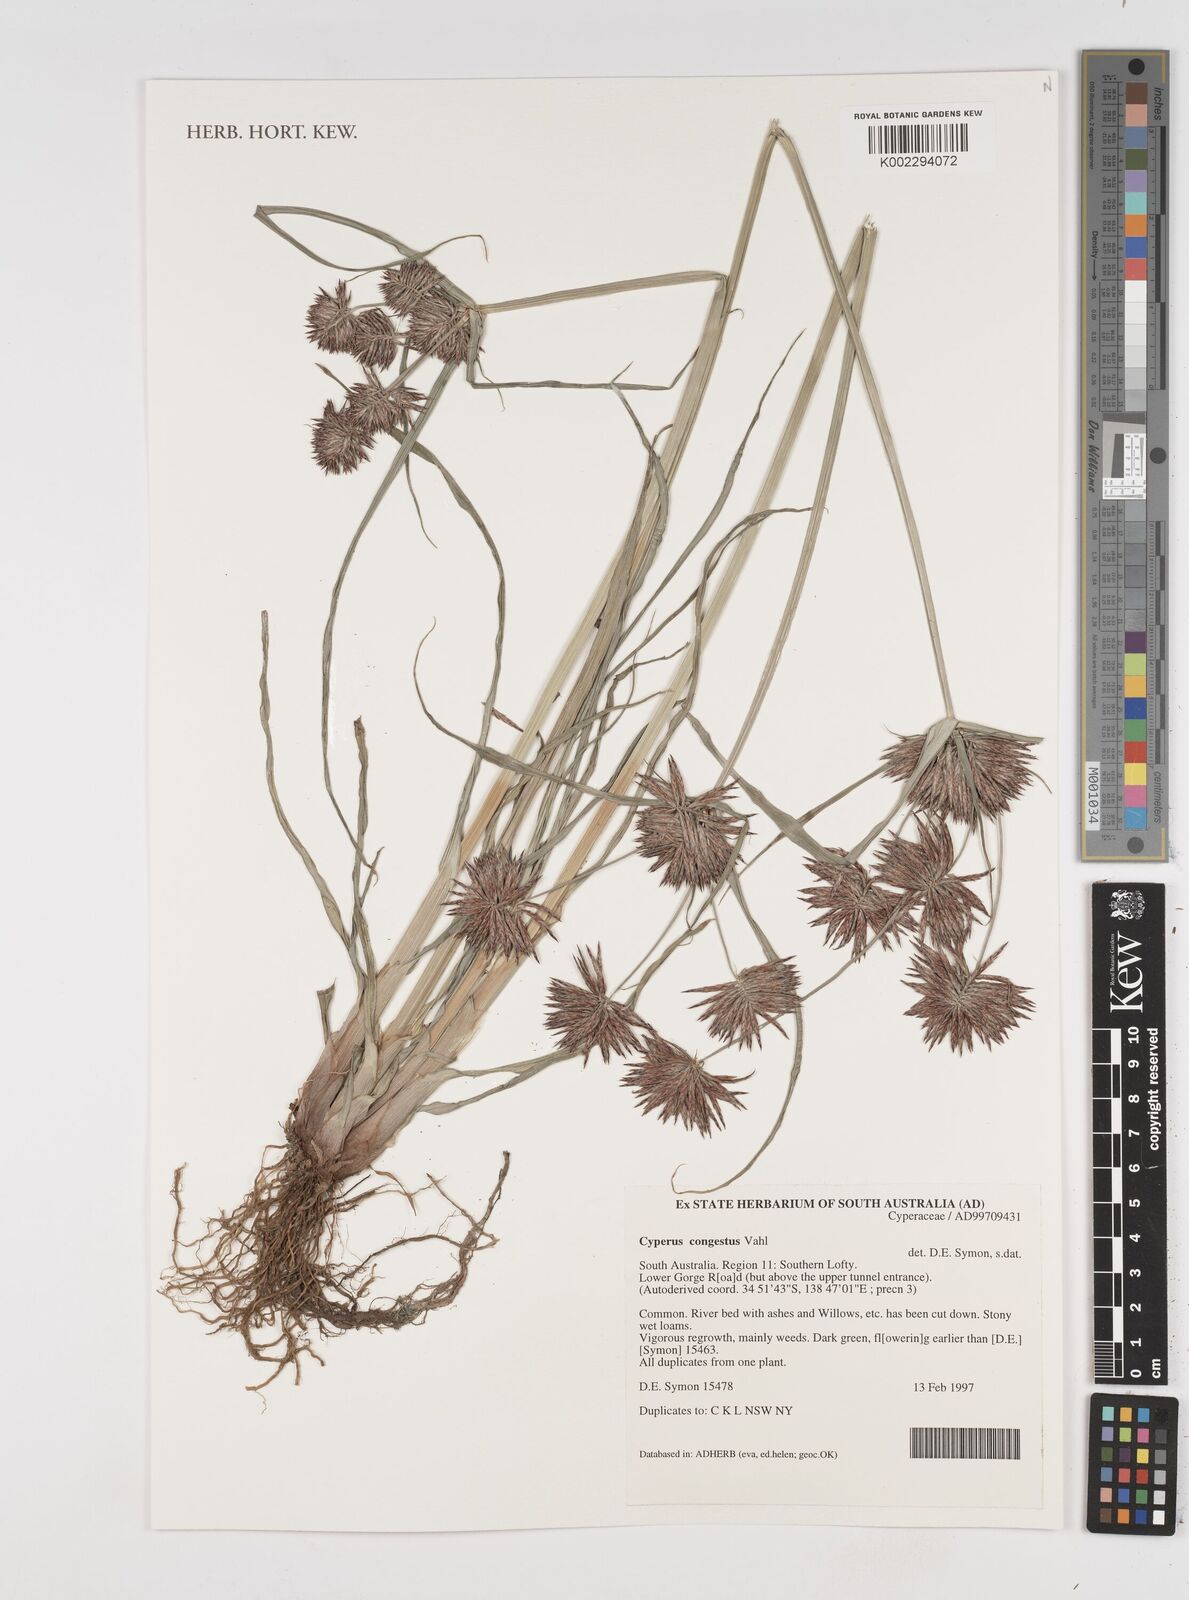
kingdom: Plantae
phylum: Tracheophyta
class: Liliopsida
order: Poales
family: Cyperaceae
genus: Cyperus
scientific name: Cyperus congestus
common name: Dense flat sedge
